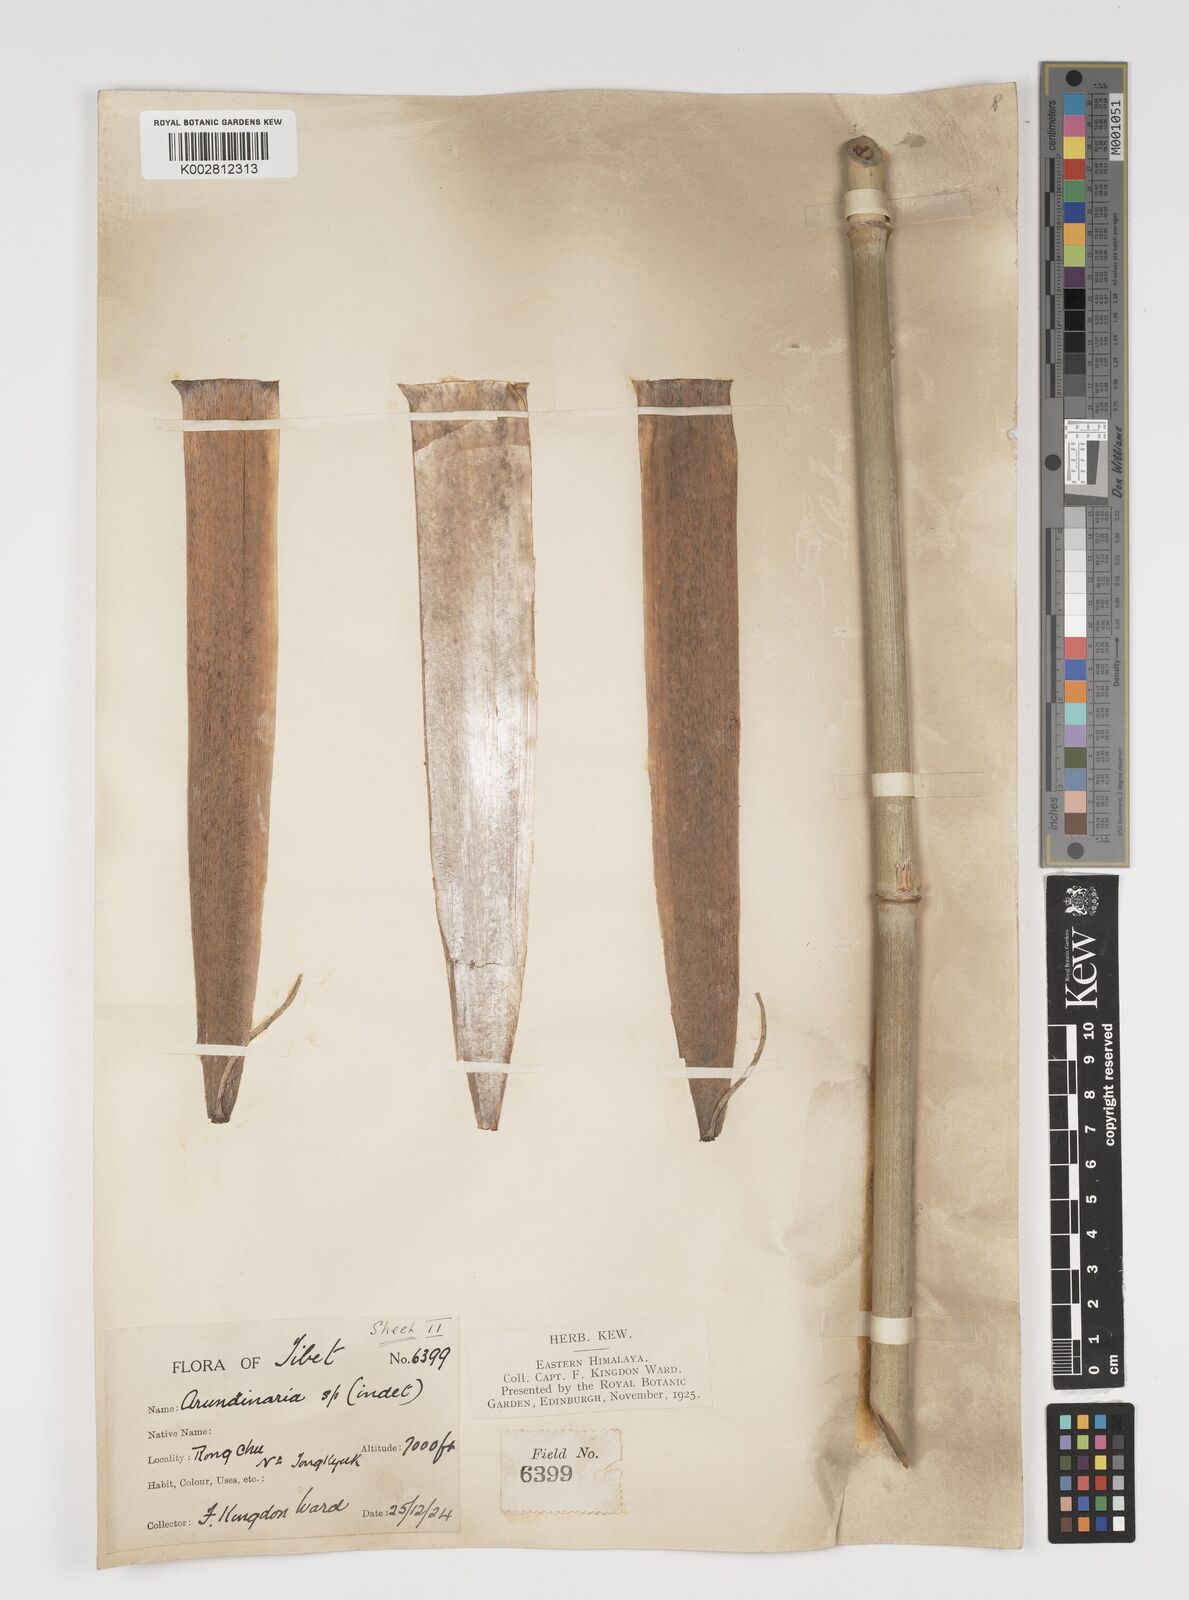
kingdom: Plantae
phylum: Tracheophyta
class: Liliopsida
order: Poales
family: Poaceae
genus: Yushania
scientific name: Yushania
